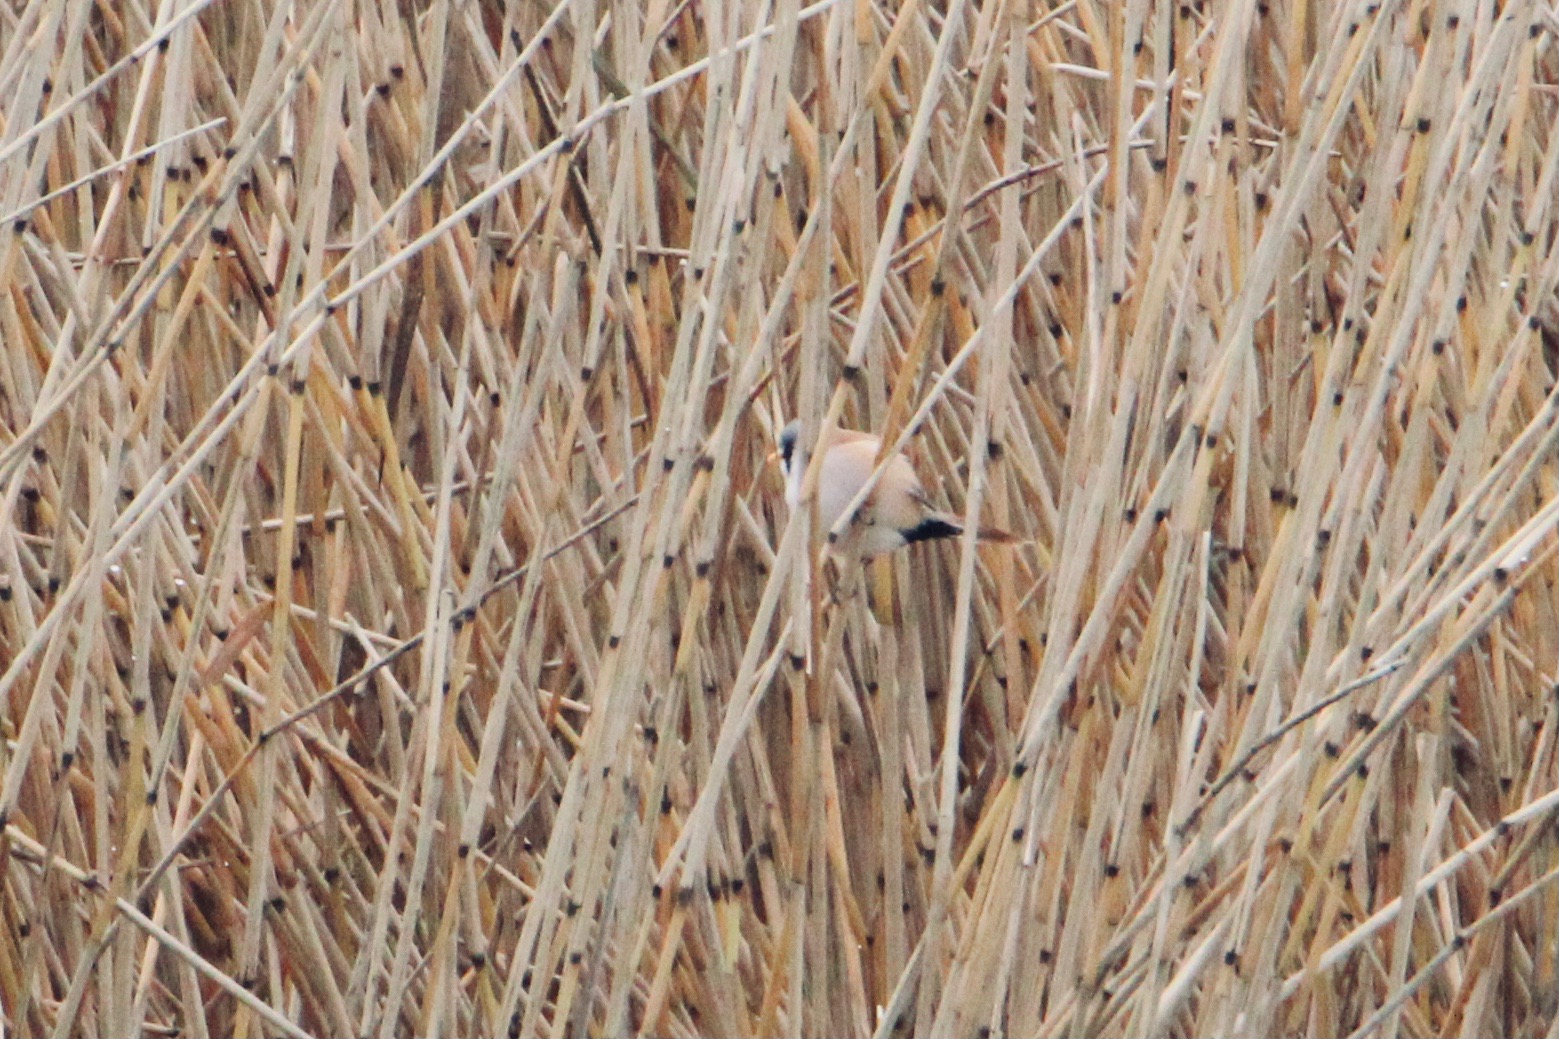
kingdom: Animalia
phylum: Chordata
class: Aves
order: Passeriformes
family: Panuridae
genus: Panurus
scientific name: Panurus biarmicus
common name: Skægmejse
